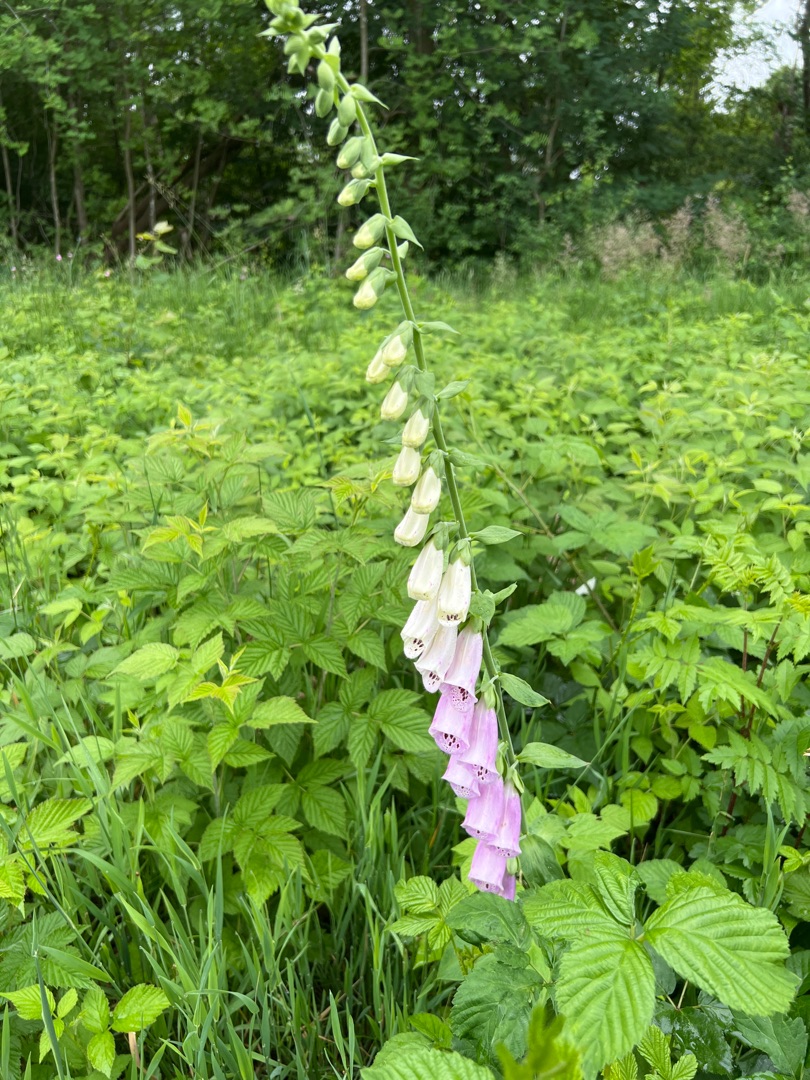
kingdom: Plantae
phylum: Tracheophyta
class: Magnoliopsida
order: Lamiales
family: Plantaginaceae
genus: Digitalis
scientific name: Digitalis purpurea
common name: Almindelig fingerbøl
